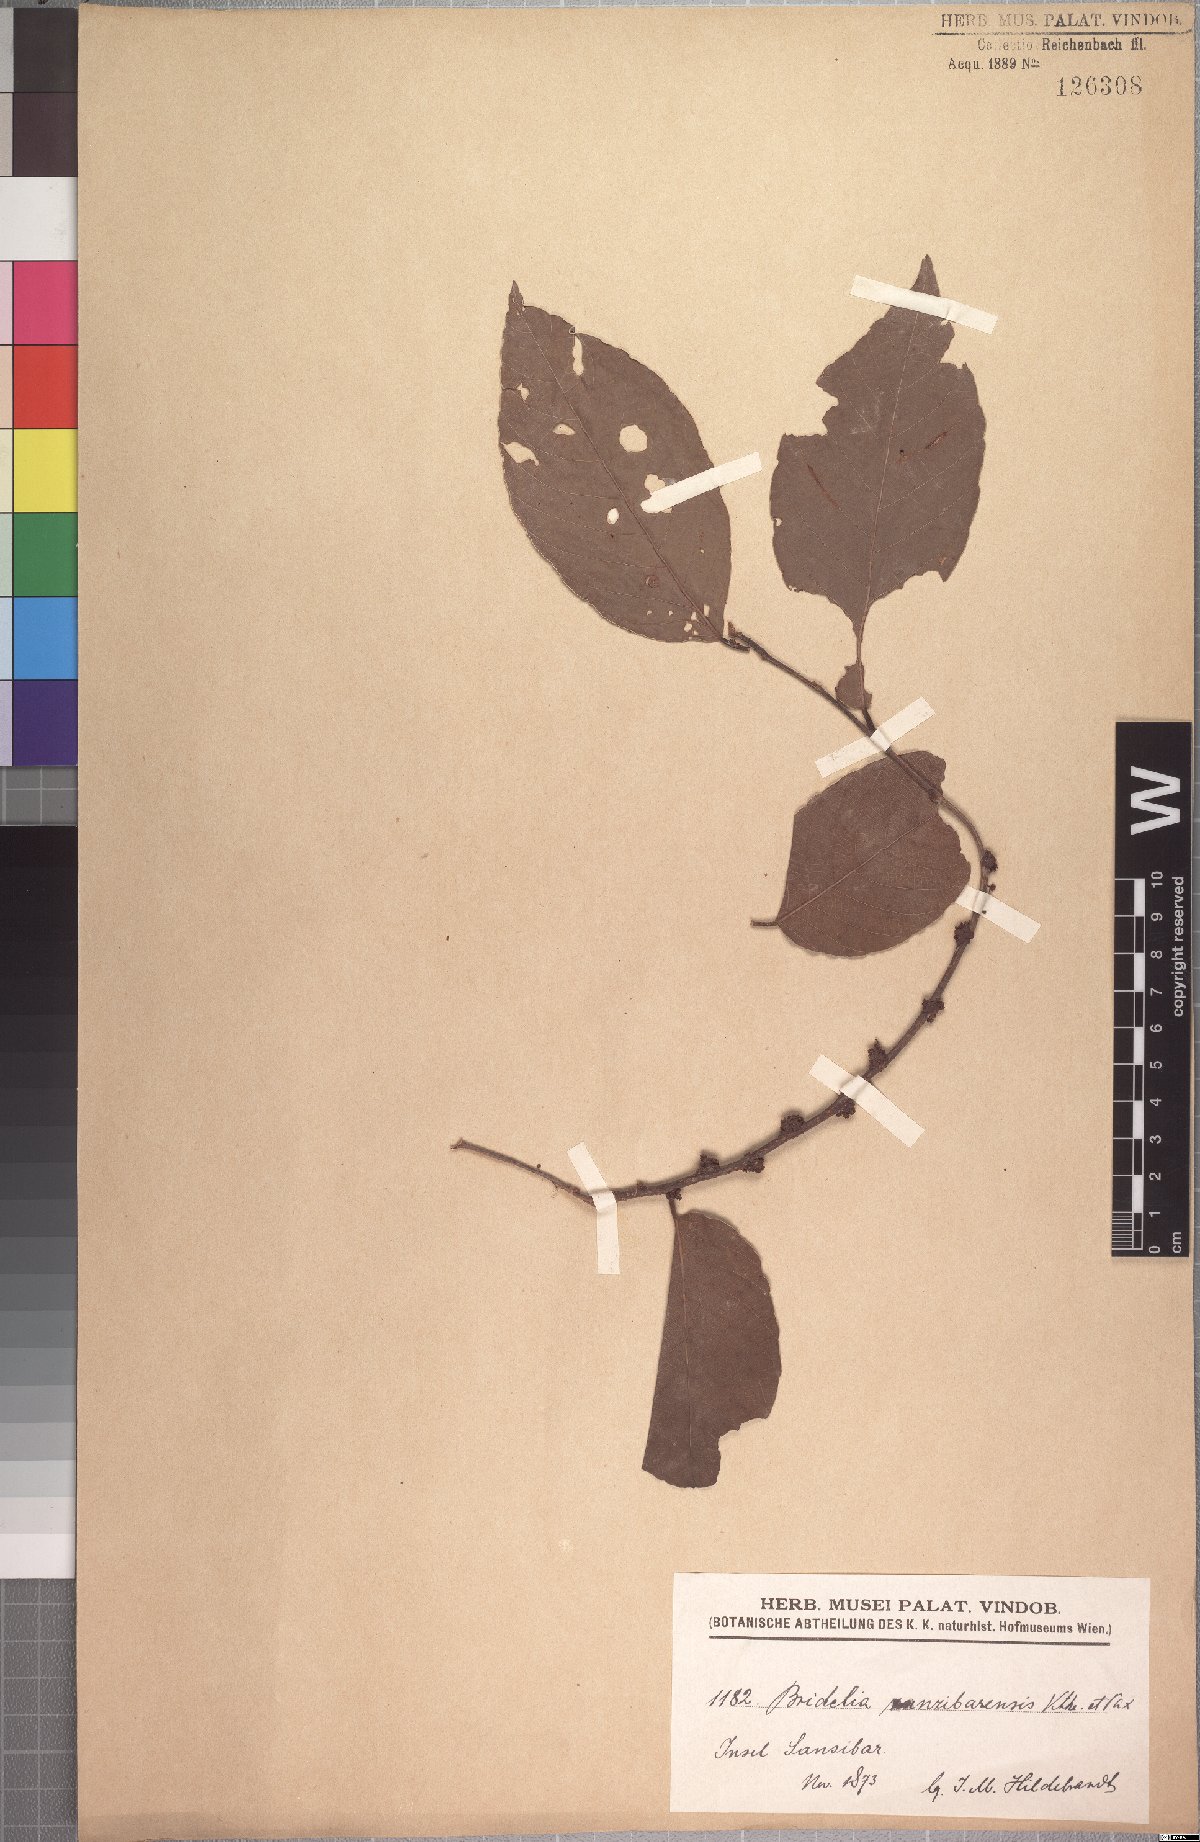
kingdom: Plantae
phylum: Tracheophyta
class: Magnoliopsida
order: Malpighiales
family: Phyllanthaceae
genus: Bridelia
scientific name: Bridelia micrantha
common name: Bridelia
